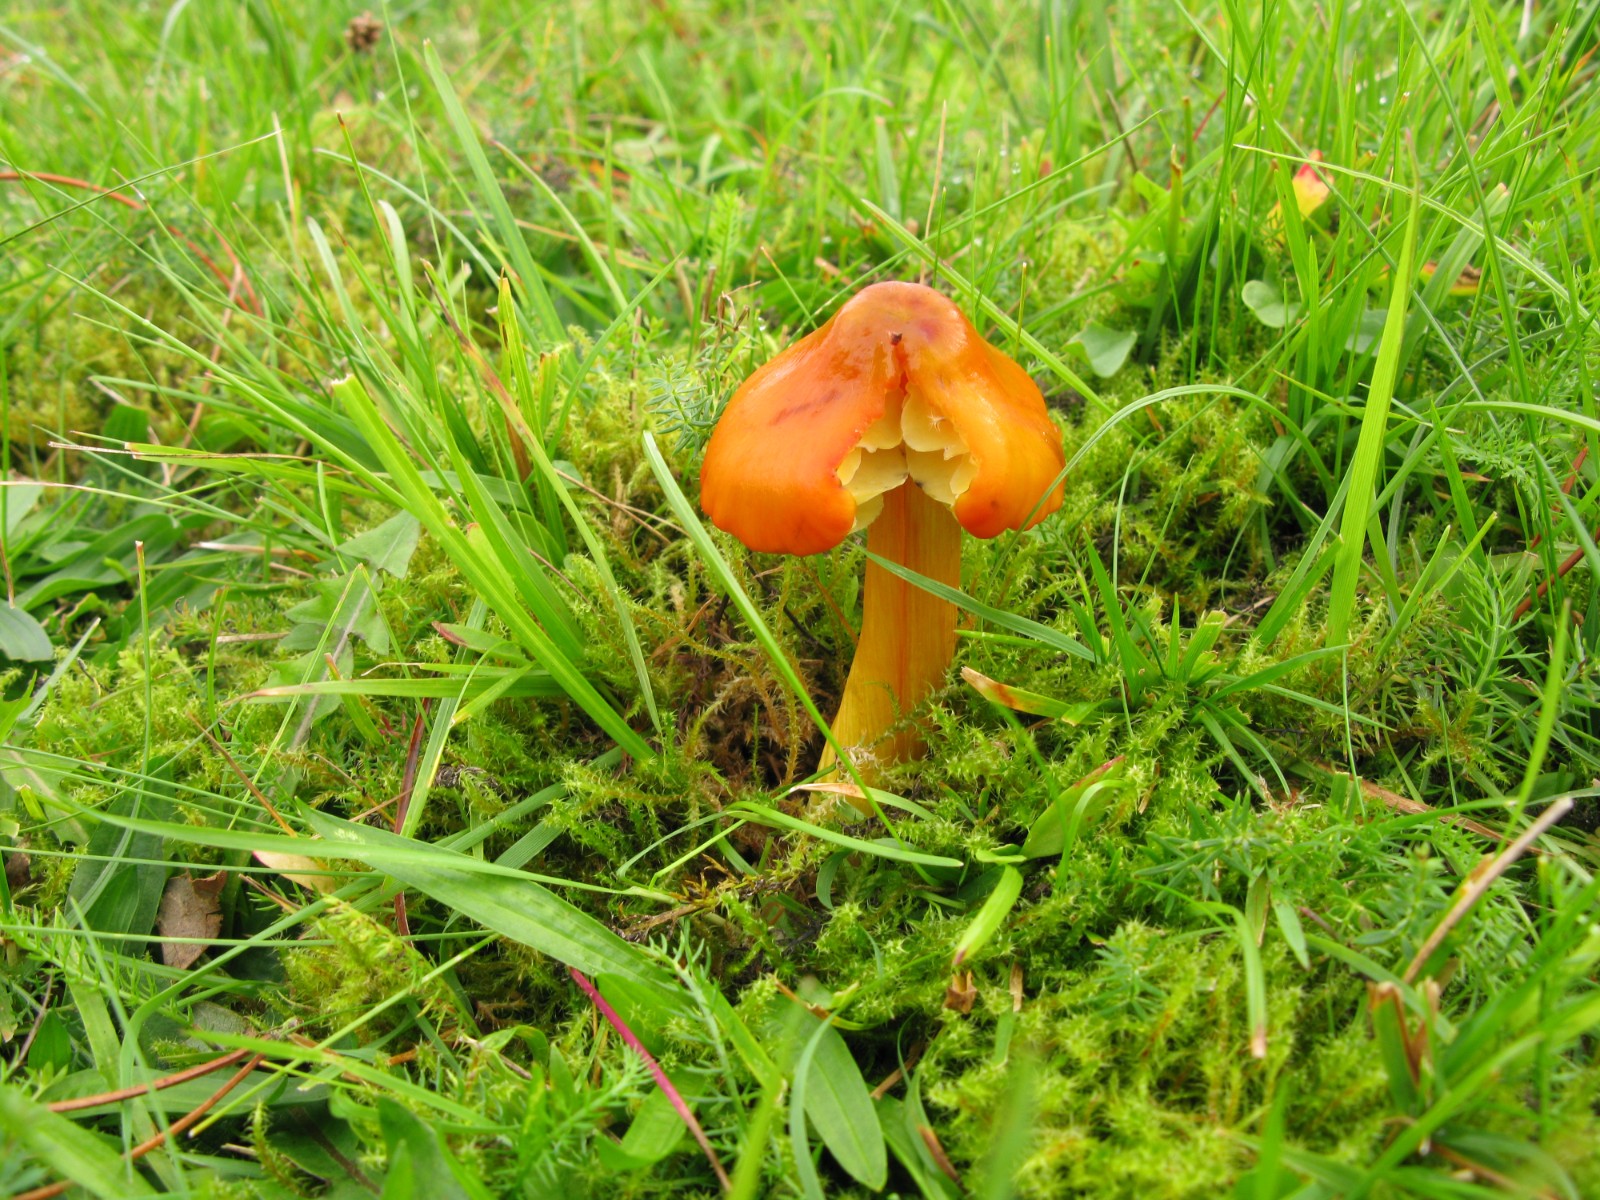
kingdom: Fungi
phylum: Basidiomycota
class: Agaricomycetes
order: Agaricales
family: Hygrophoraceae
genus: Hygrocybe
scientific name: Hygrocybe conica
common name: kegle-vokshat
